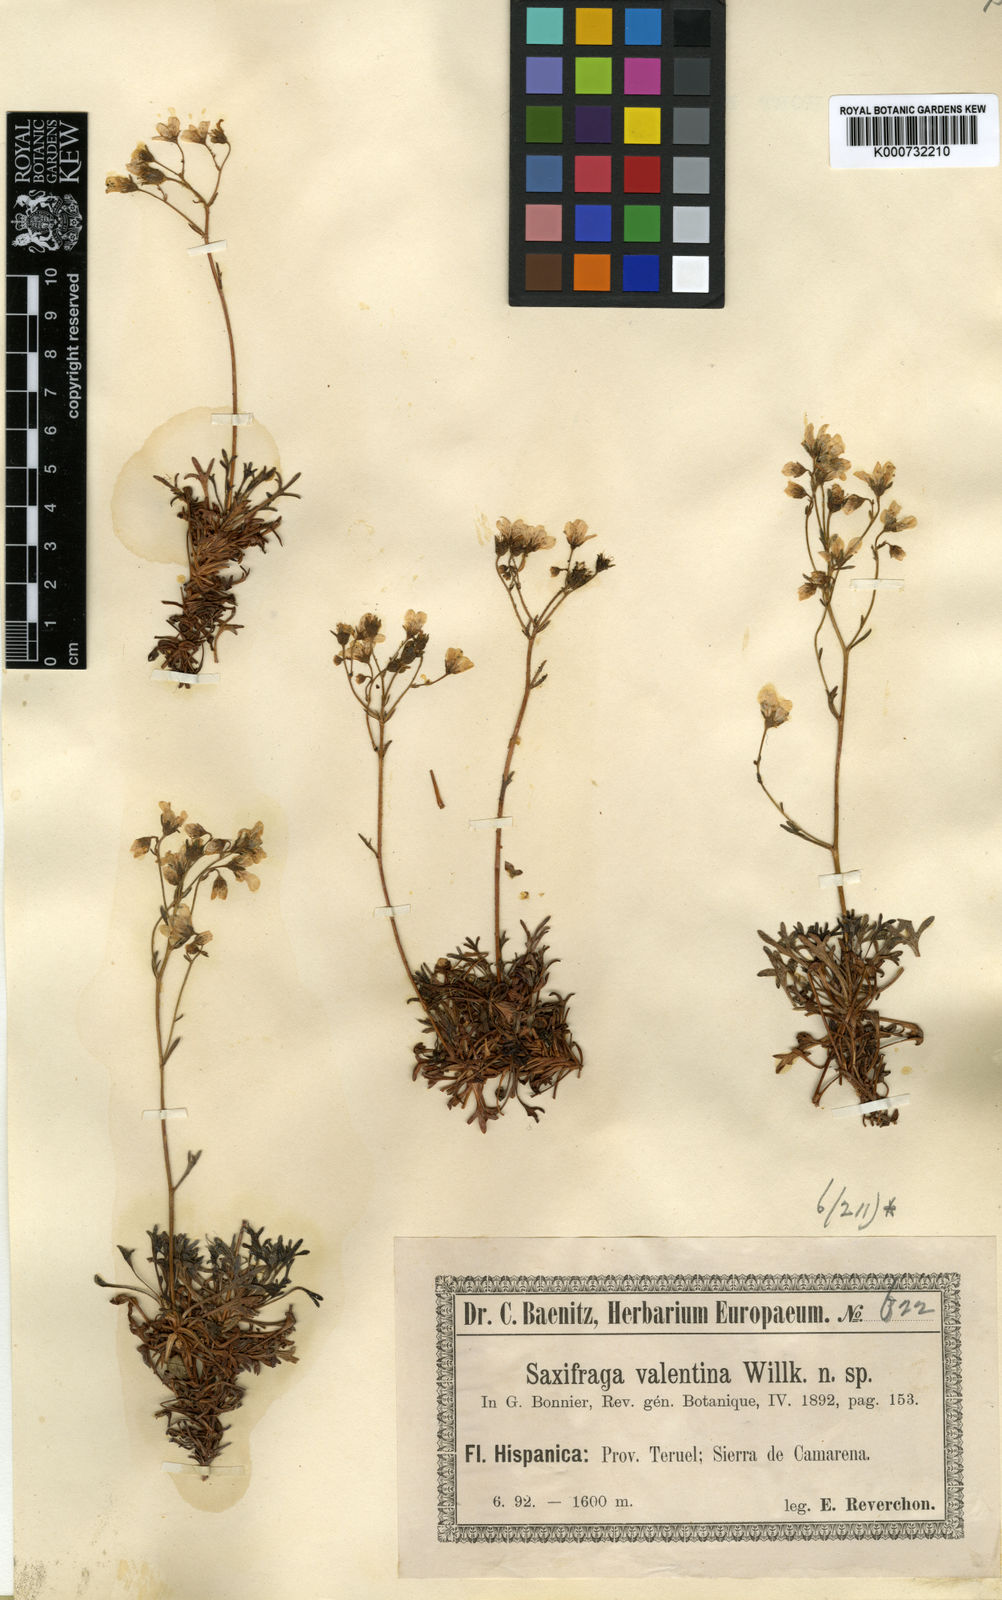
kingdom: Plantae
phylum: Tracheophyta
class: Magnoliopsida
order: Saxifragales
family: Saxifragaceae
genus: Saxifraga
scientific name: Saxifraga cuneata
